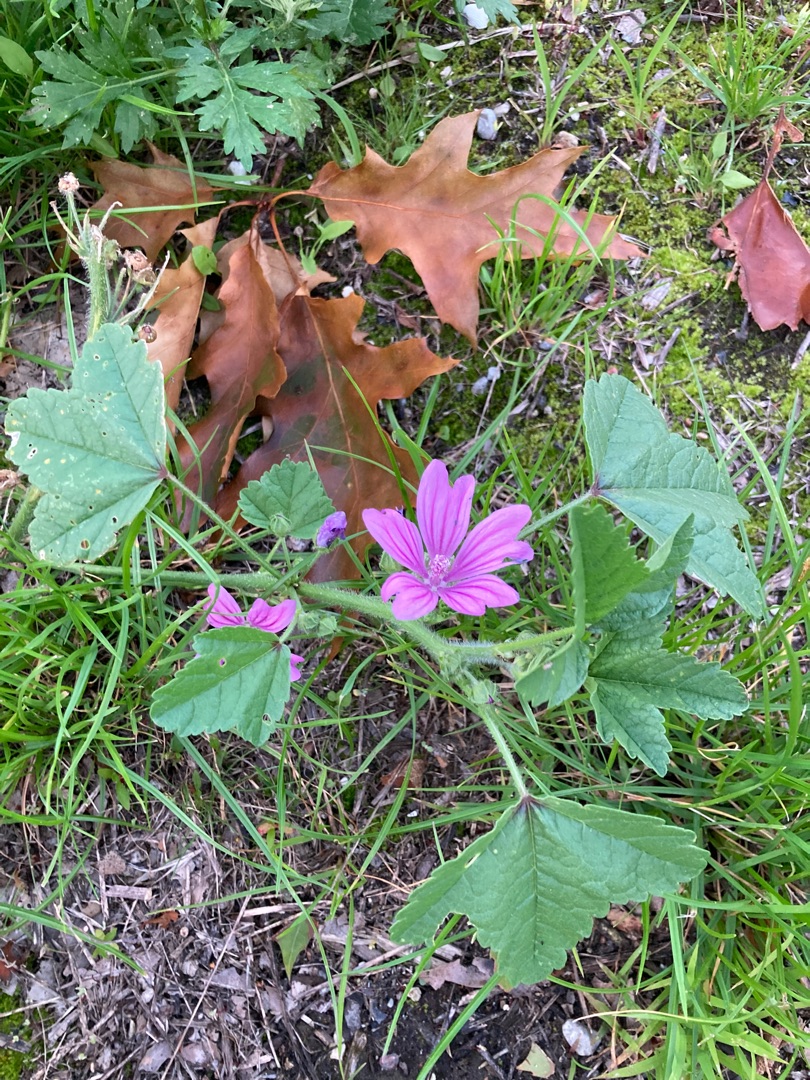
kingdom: Plantae
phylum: Tracheophyta
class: Magnoliopsida
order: Malvales
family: Malvaceae
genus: Malva
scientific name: Malva sylvestris
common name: Almindelig katost
